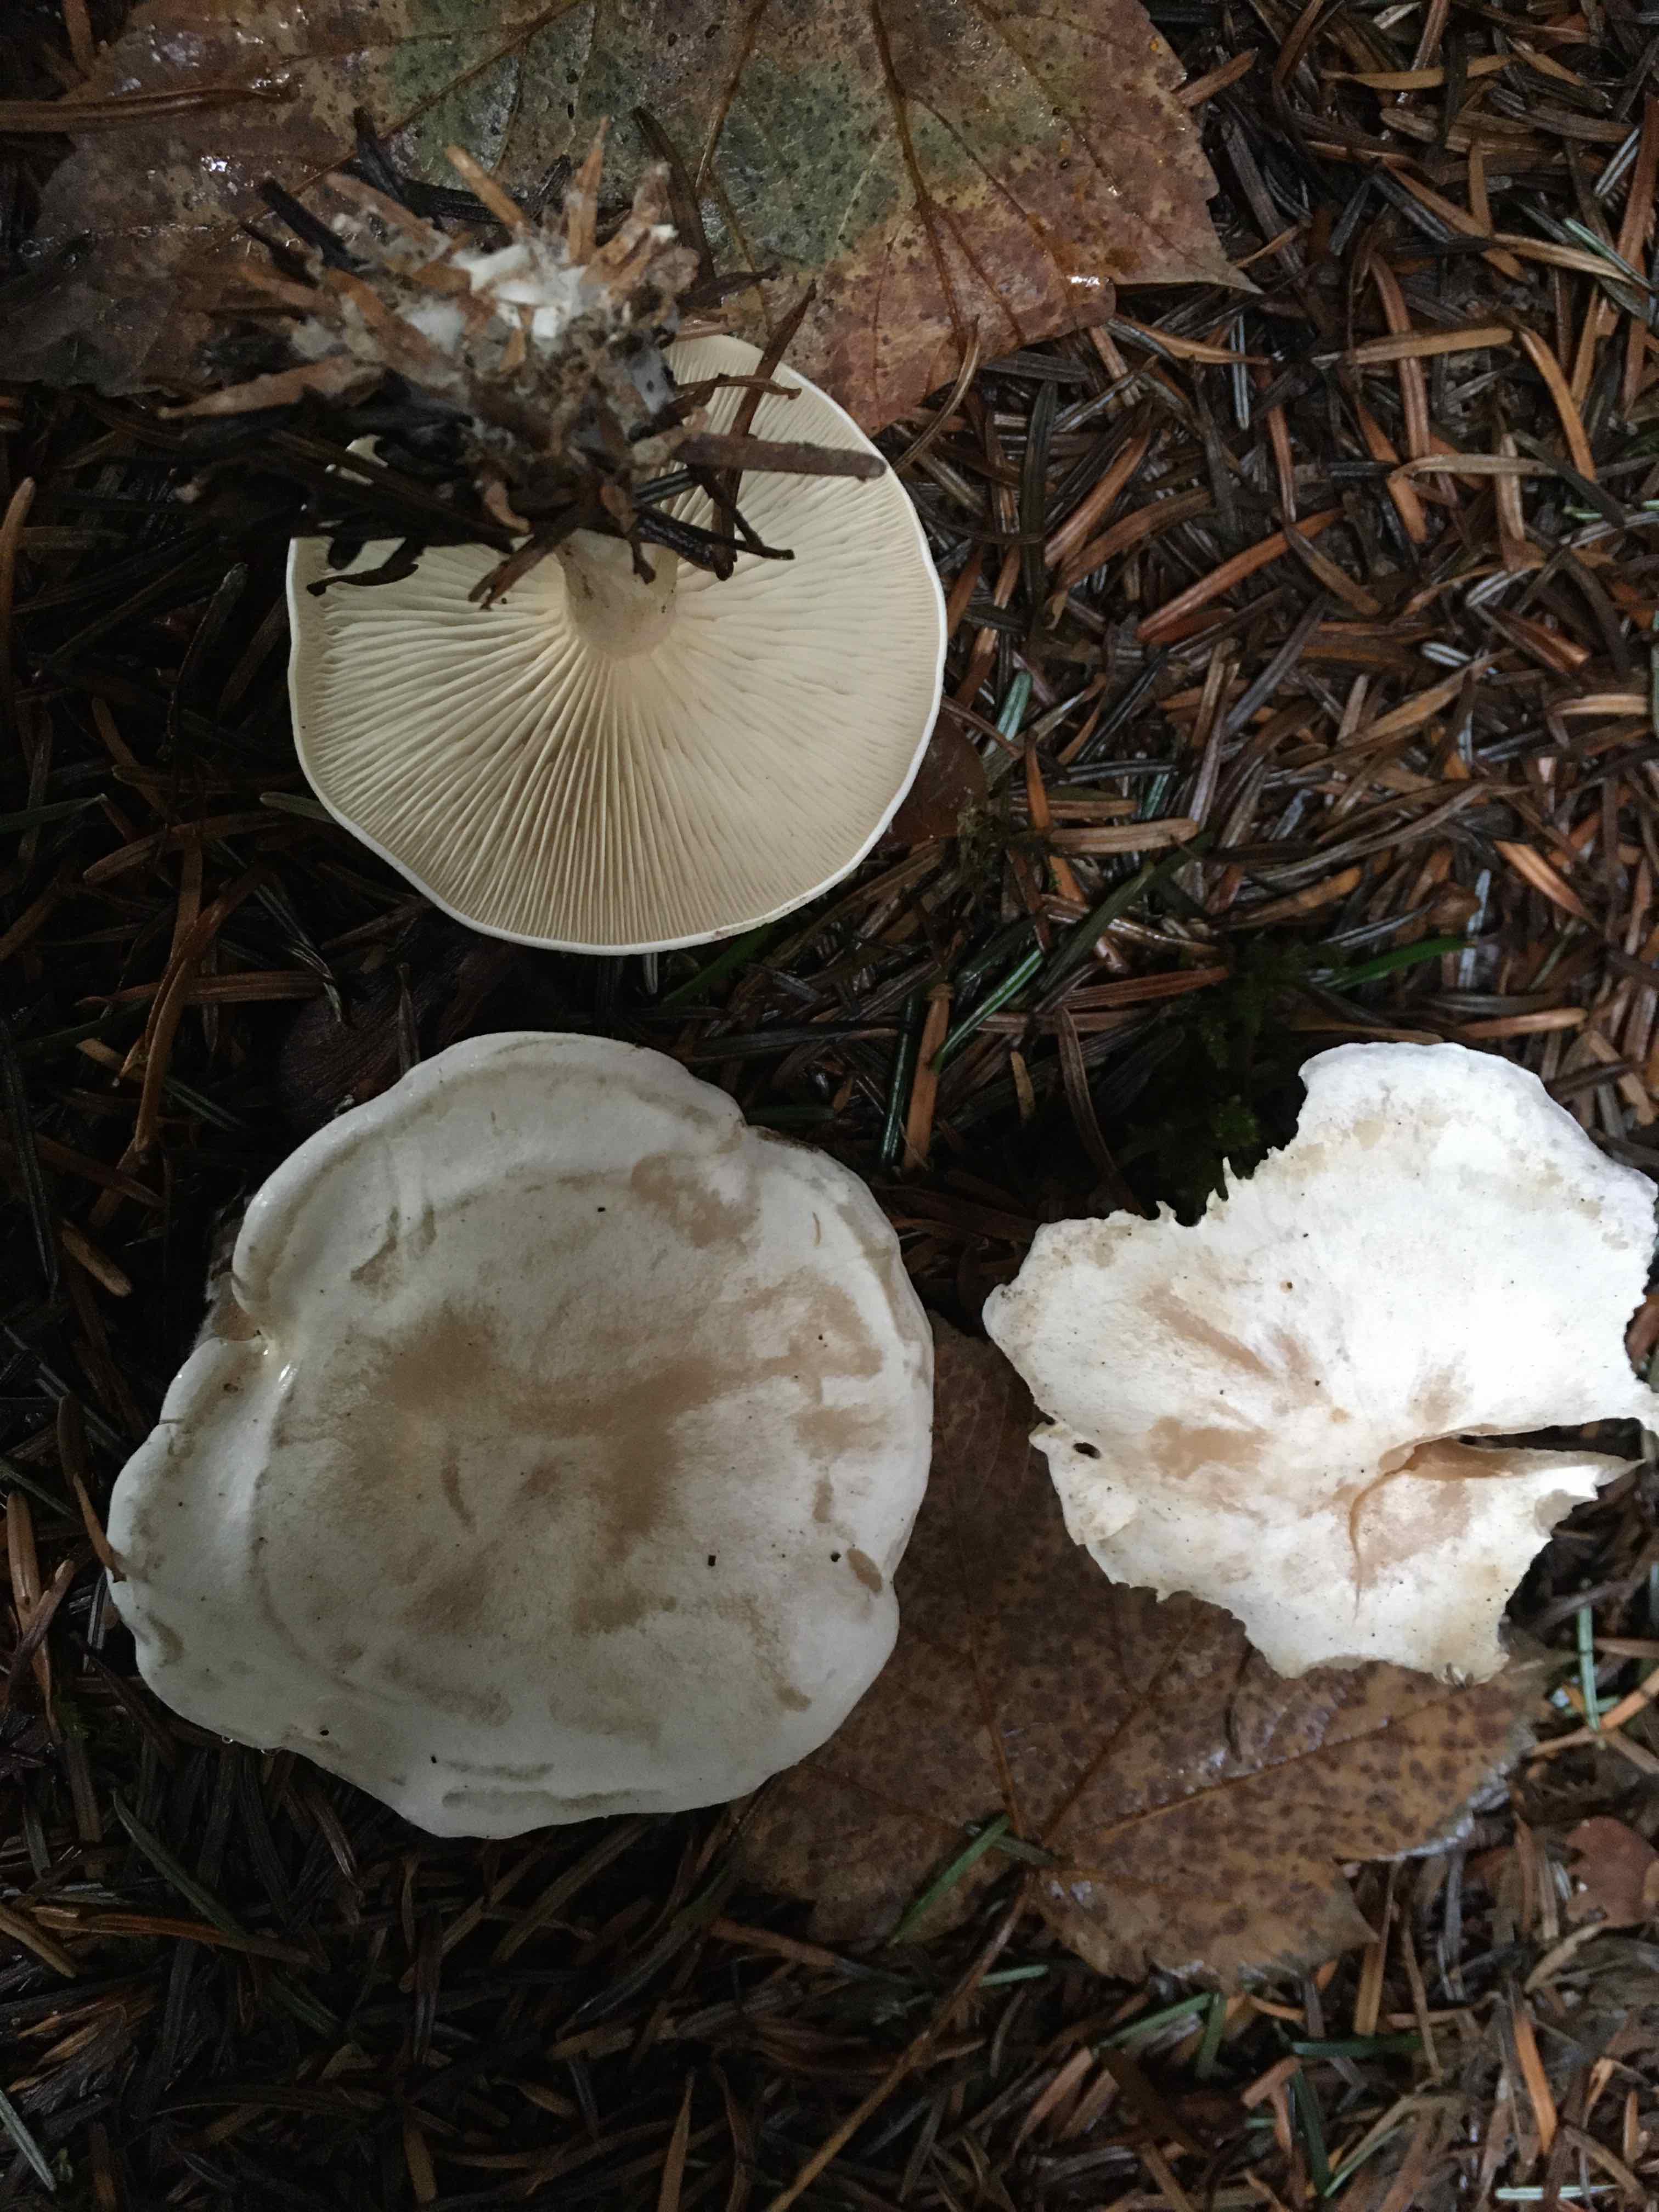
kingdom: Fungi
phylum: Basidiomycota
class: Agaricomycetes
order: Agaricales
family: Tricholomataceae
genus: Clitocybe
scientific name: Clitocybe
